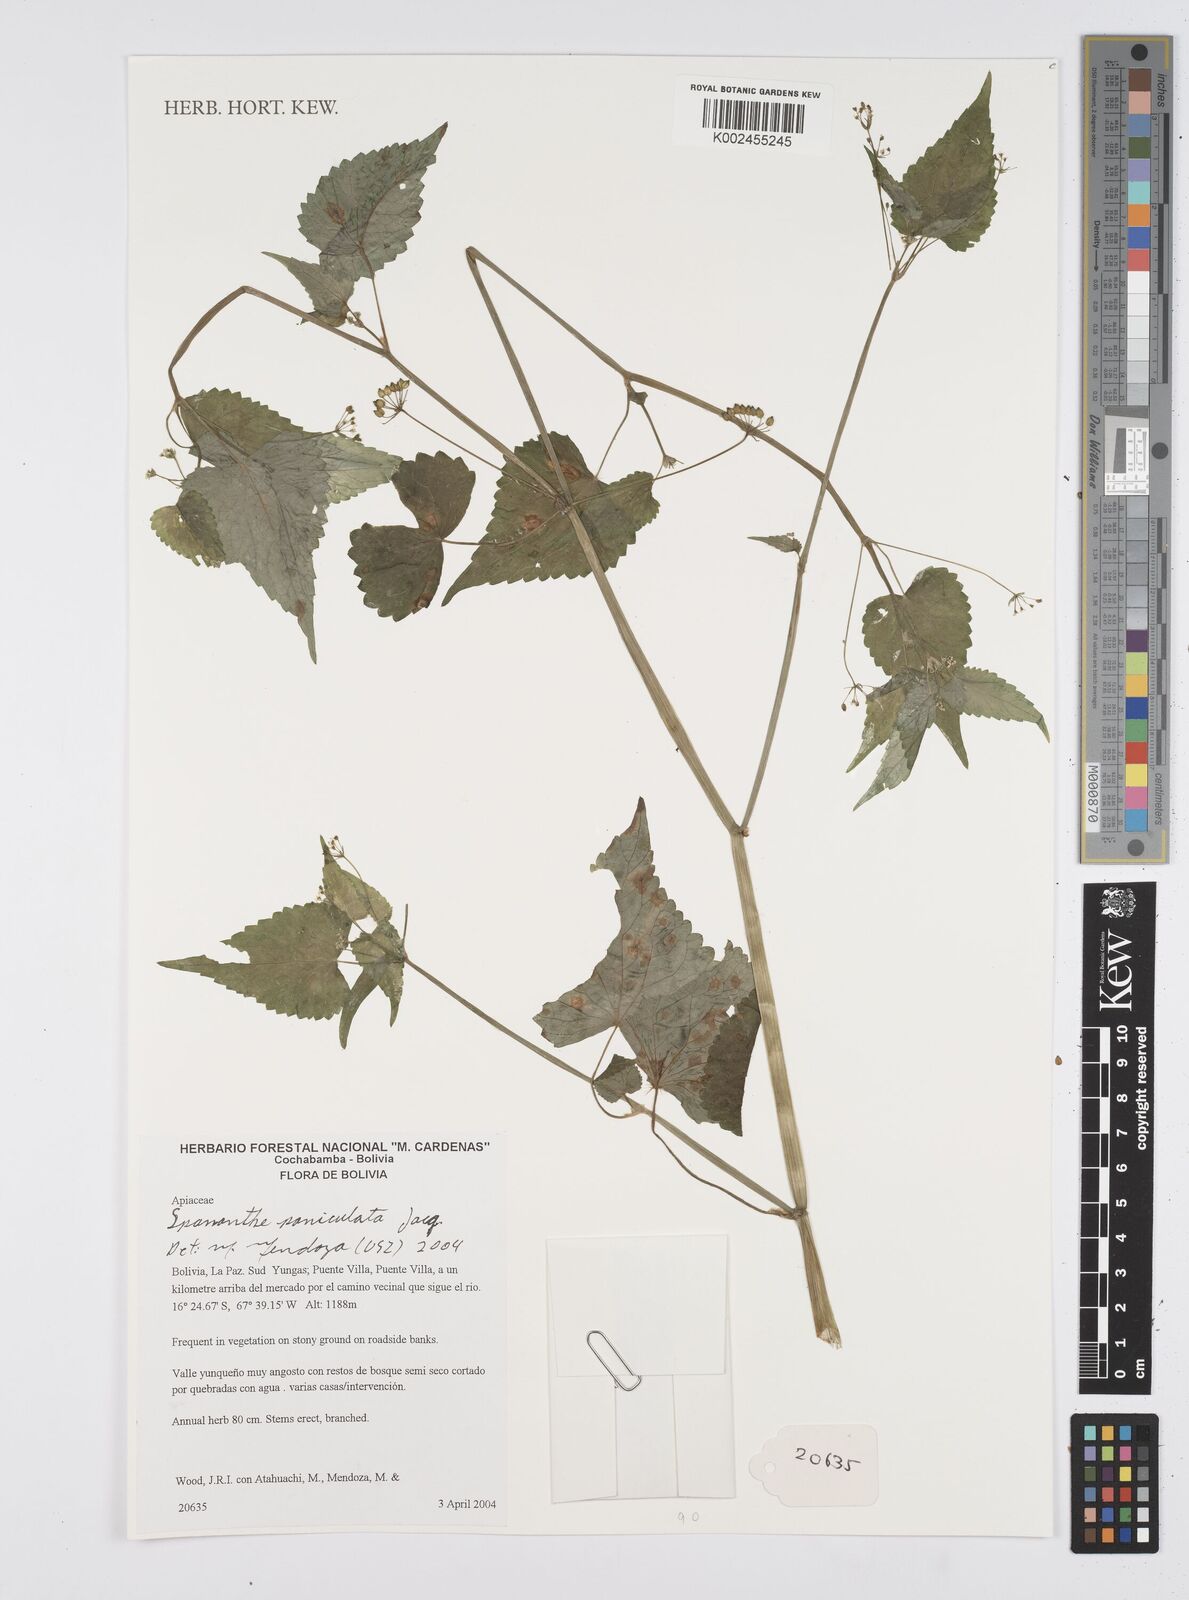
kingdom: Plantae
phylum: Tracheophyta
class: Magnoliopsida
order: Apiales
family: Apiaceae
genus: Azorella
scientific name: Azorella
